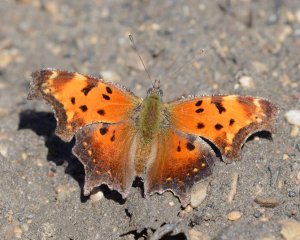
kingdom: Animalia
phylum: Arthropoda
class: Insecta
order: Lepidoptera
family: Nymphalidae
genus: Polygonia
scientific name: Polygonia progne
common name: Gray Comma
